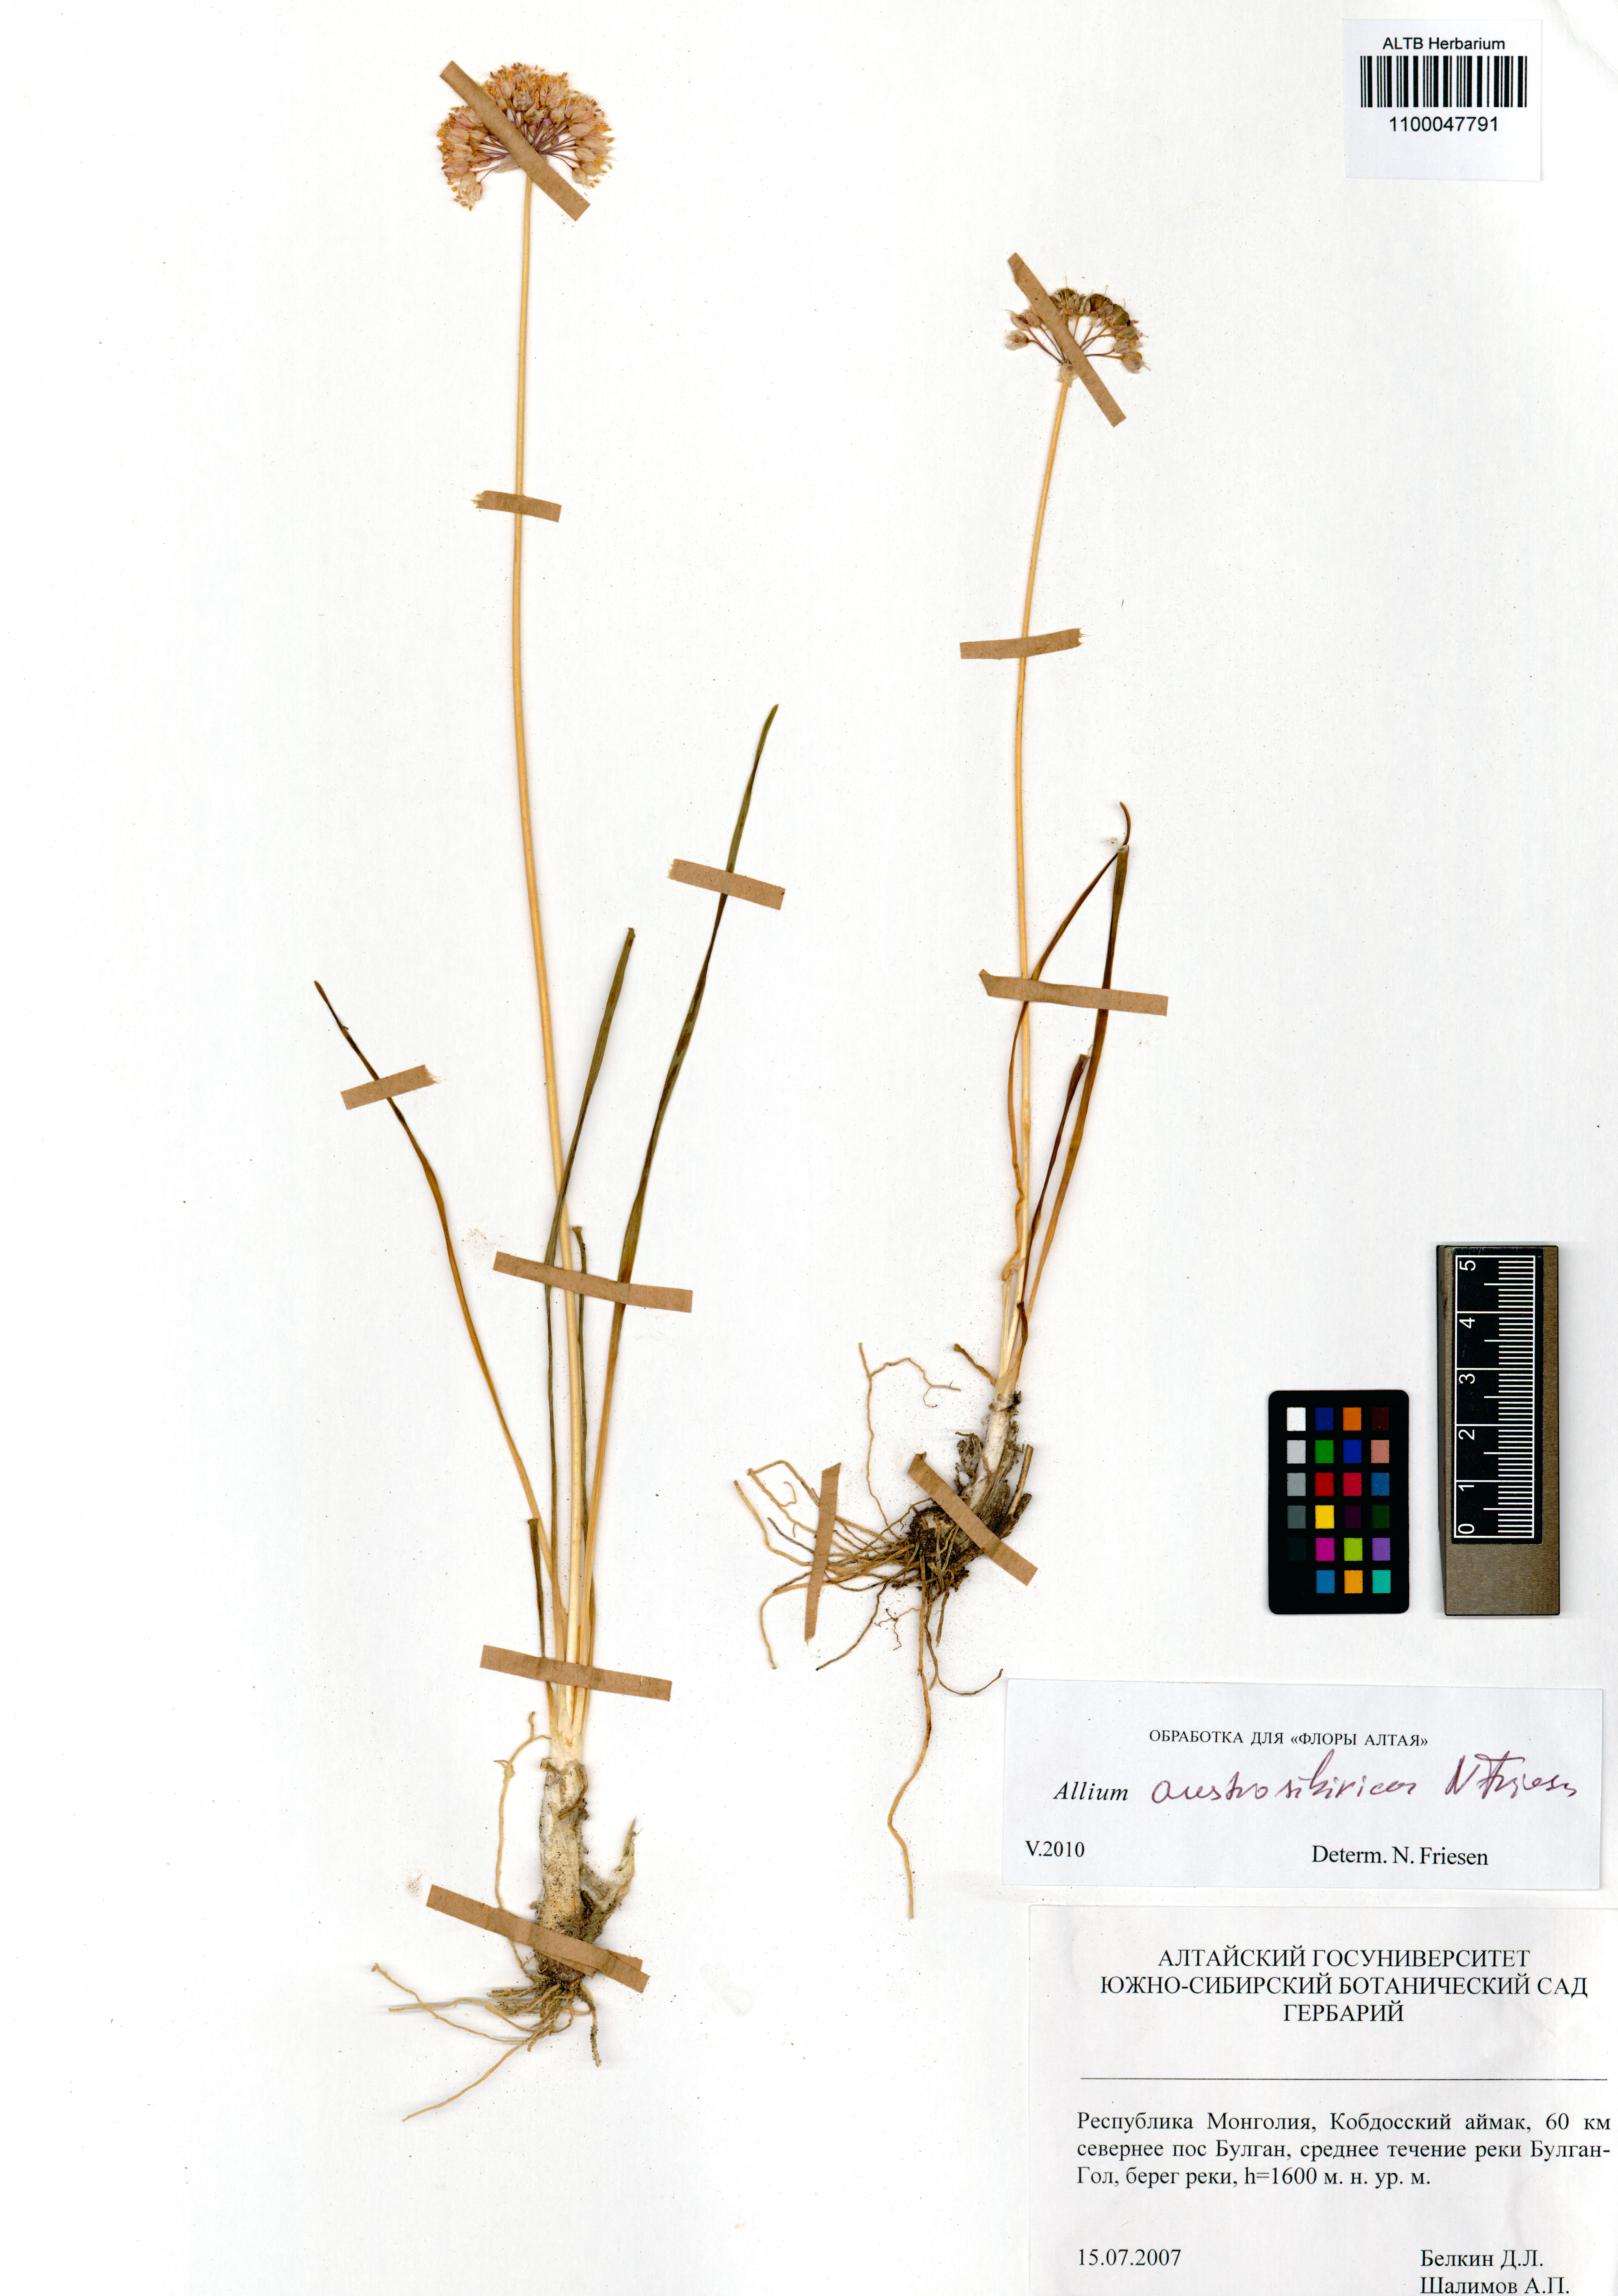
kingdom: Plantae
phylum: Tracheophyta
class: Liliopsida
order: Asparagales
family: Amaryllidaceae
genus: Allium
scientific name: Allium austrosibiricum
